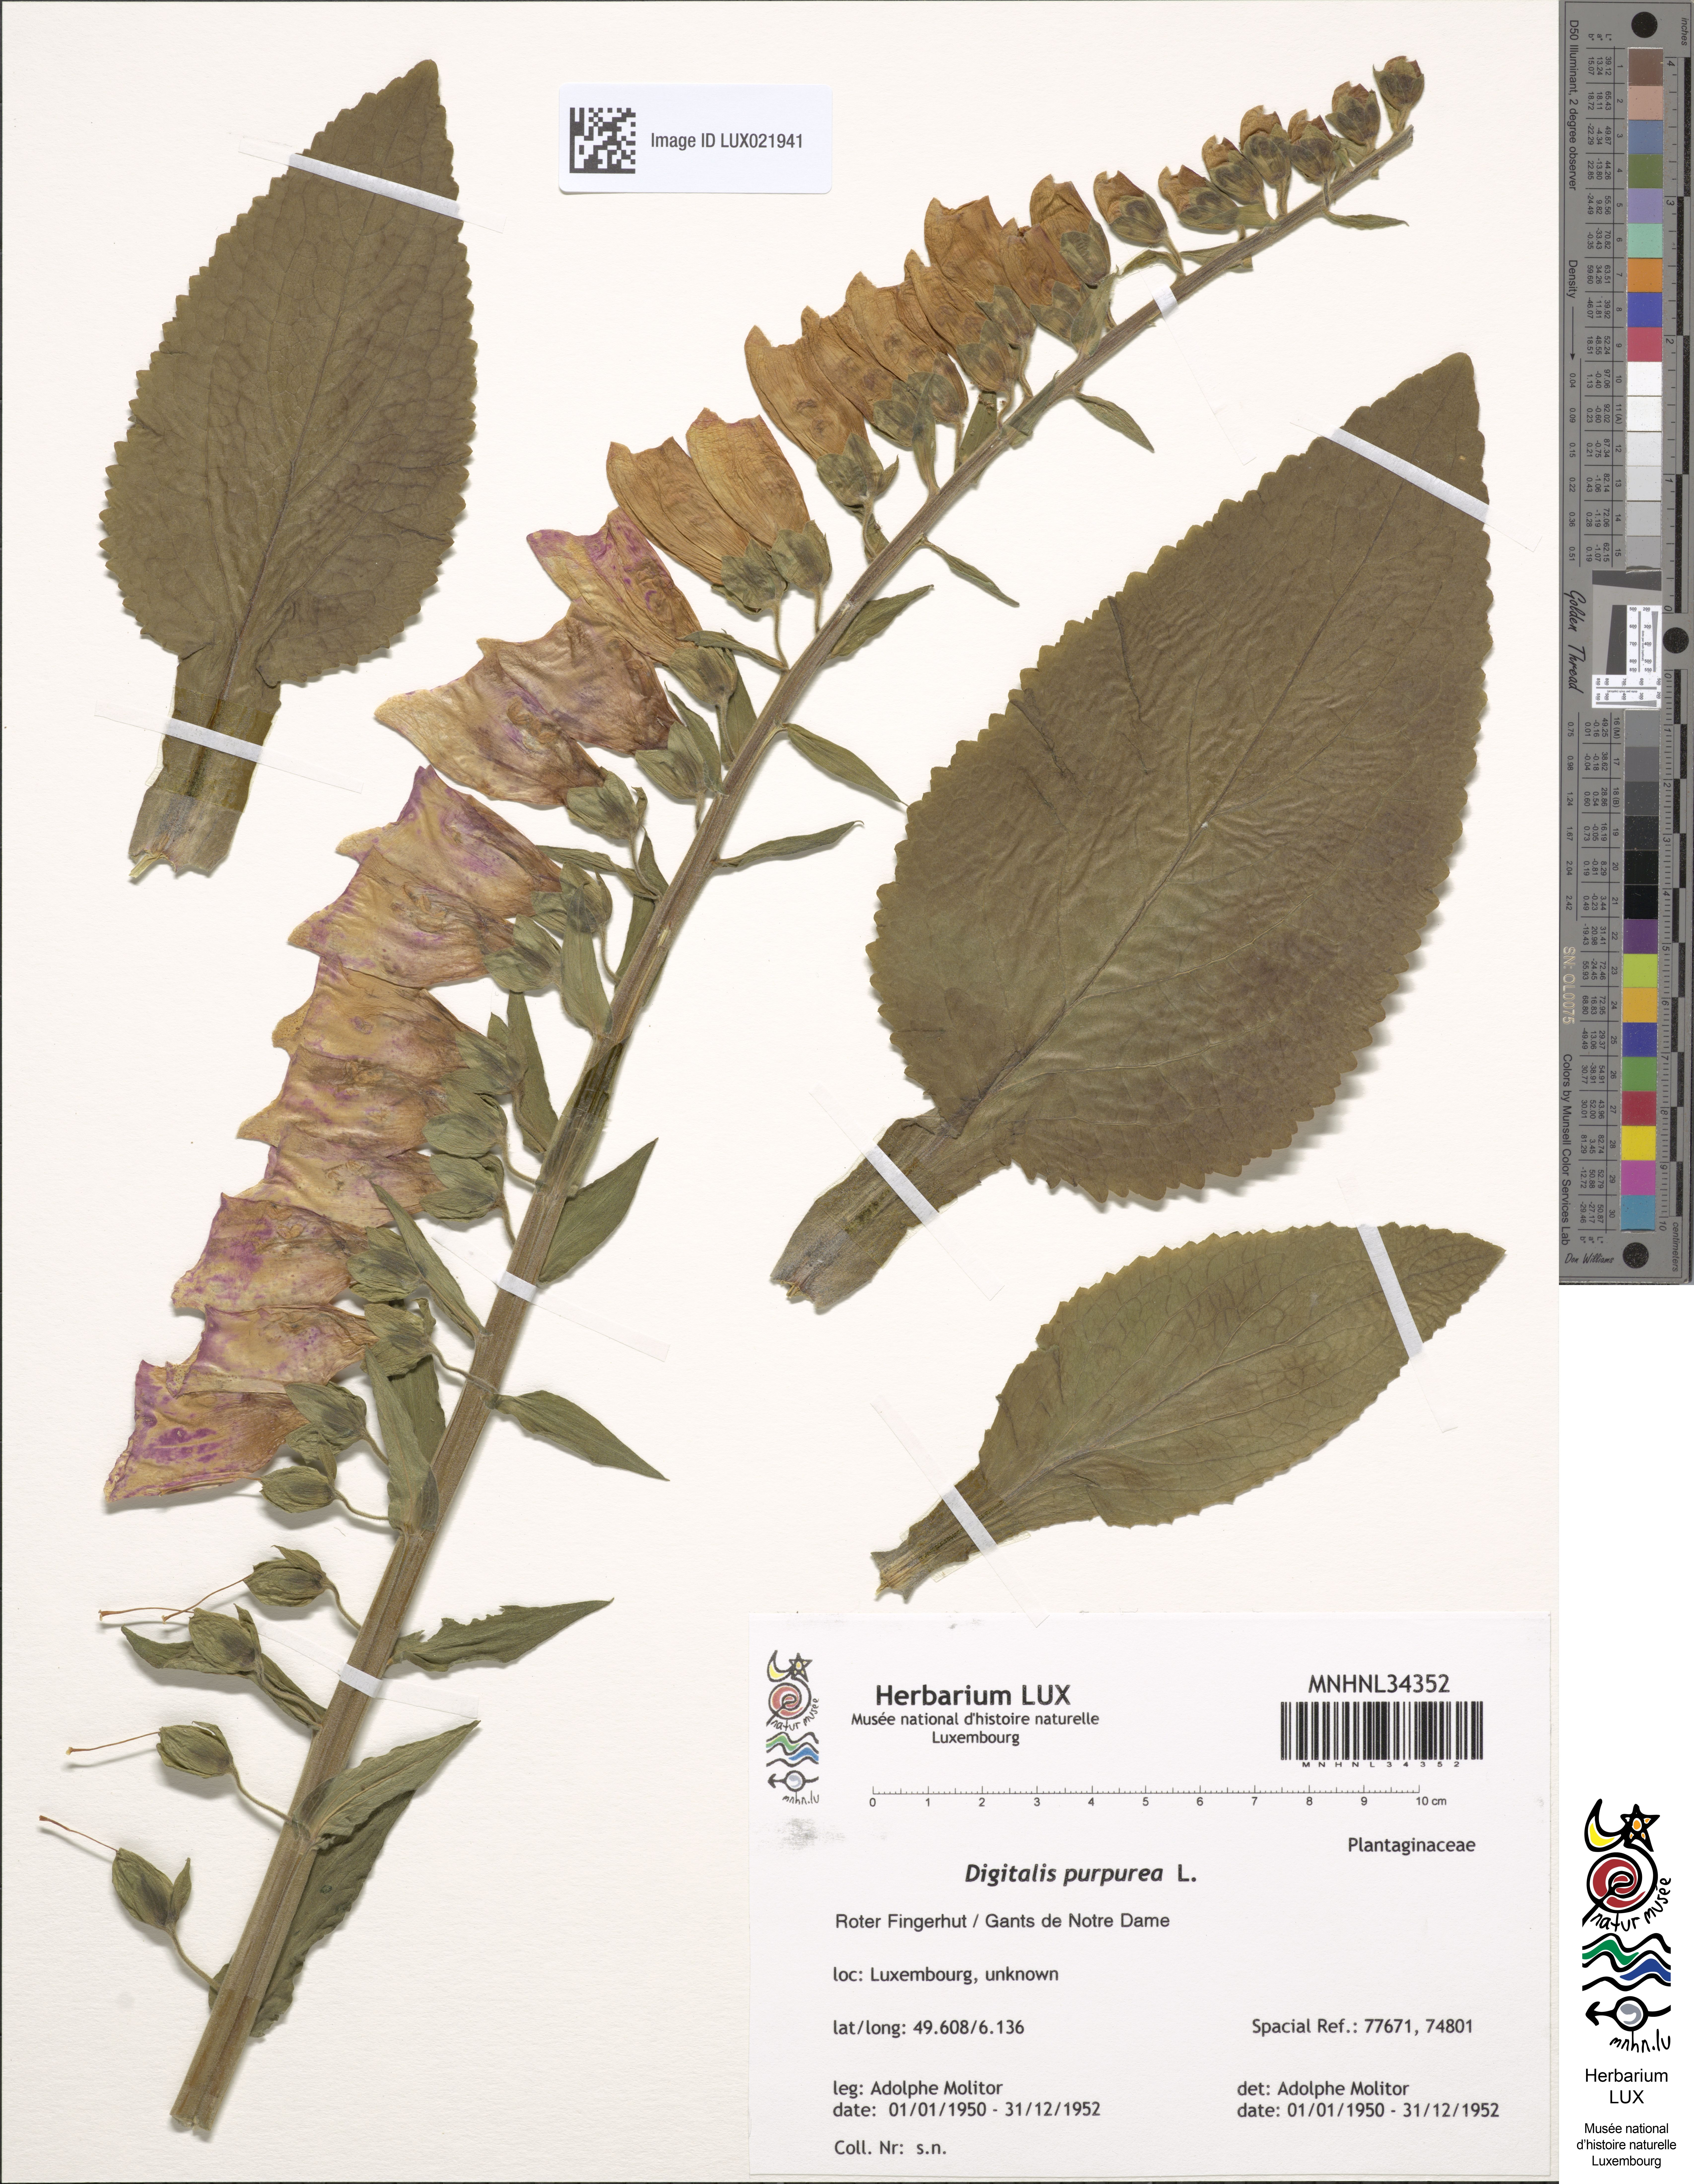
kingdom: Plantae
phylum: Tracheophyta
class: Magnoliopsida
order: Lamiales
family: Plantaginaceae
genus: Digitalis
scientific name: Digitalis purpurea
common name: Foxglove
